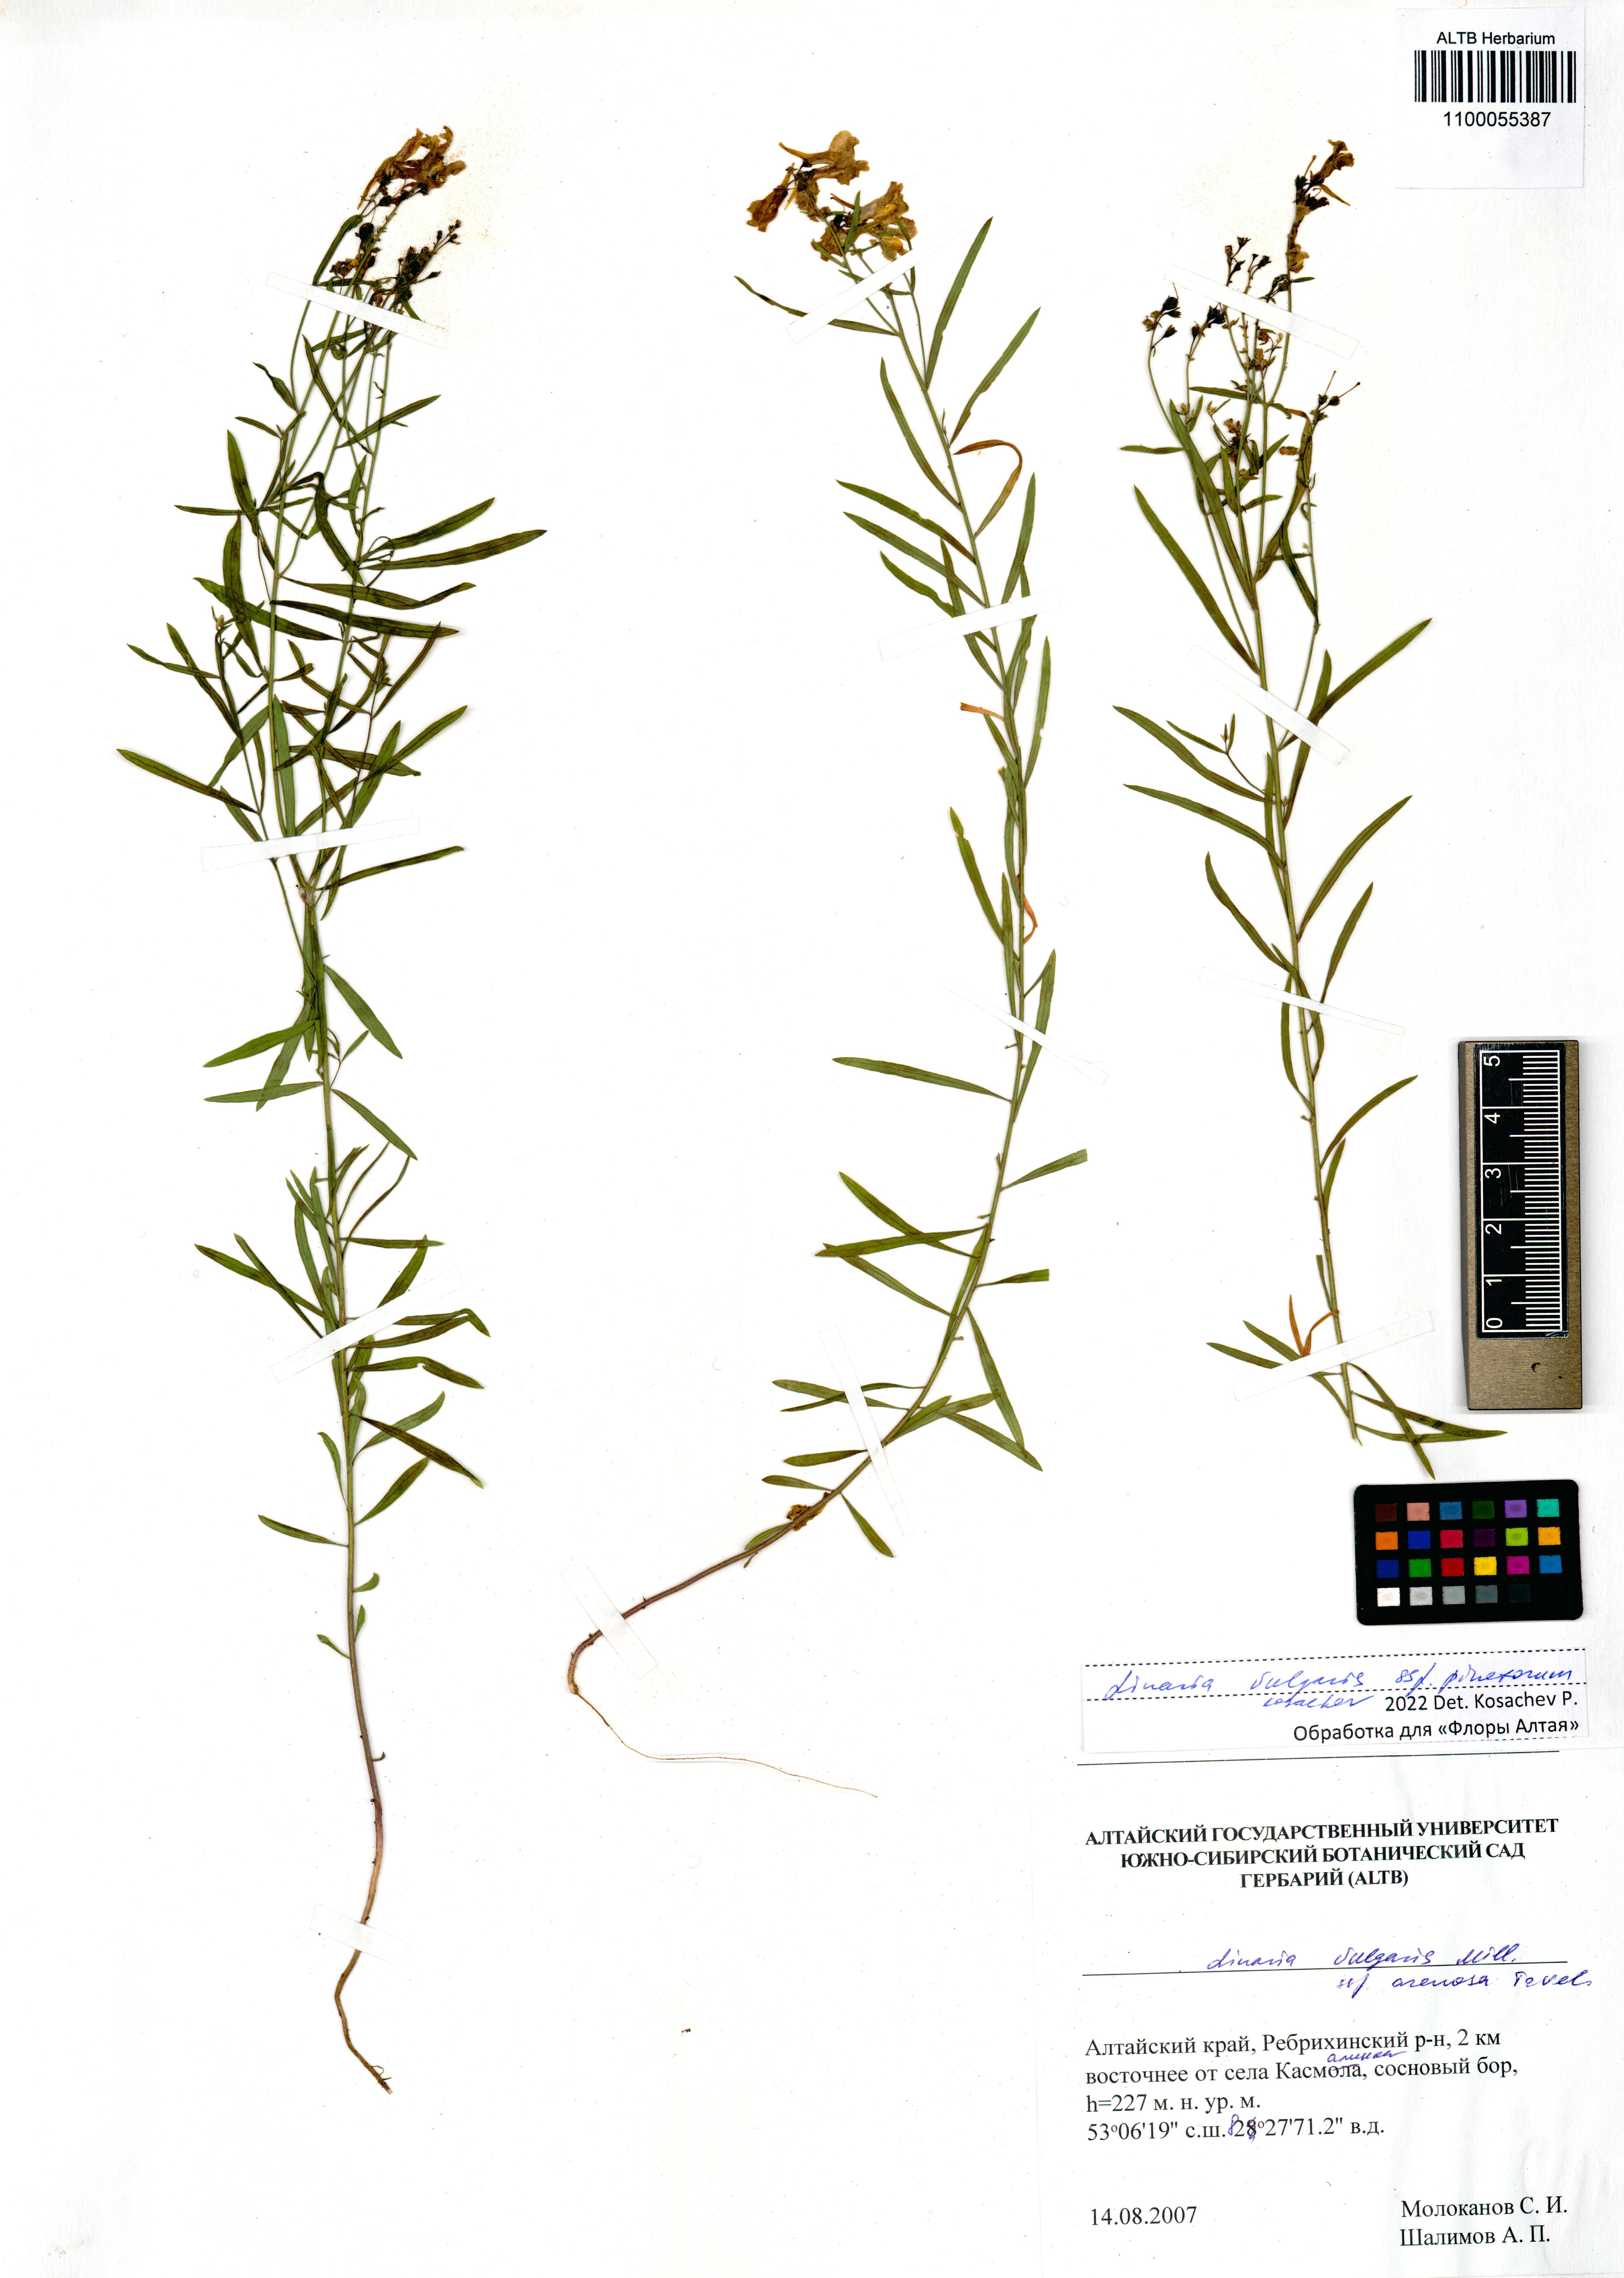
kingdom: Plantae
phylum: Tracheophyta
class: Magnoliopsida
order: Lamiales
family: Plantaginaceae
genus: Linaria
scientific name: Linaria vulgaris
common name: Butter and eggs
